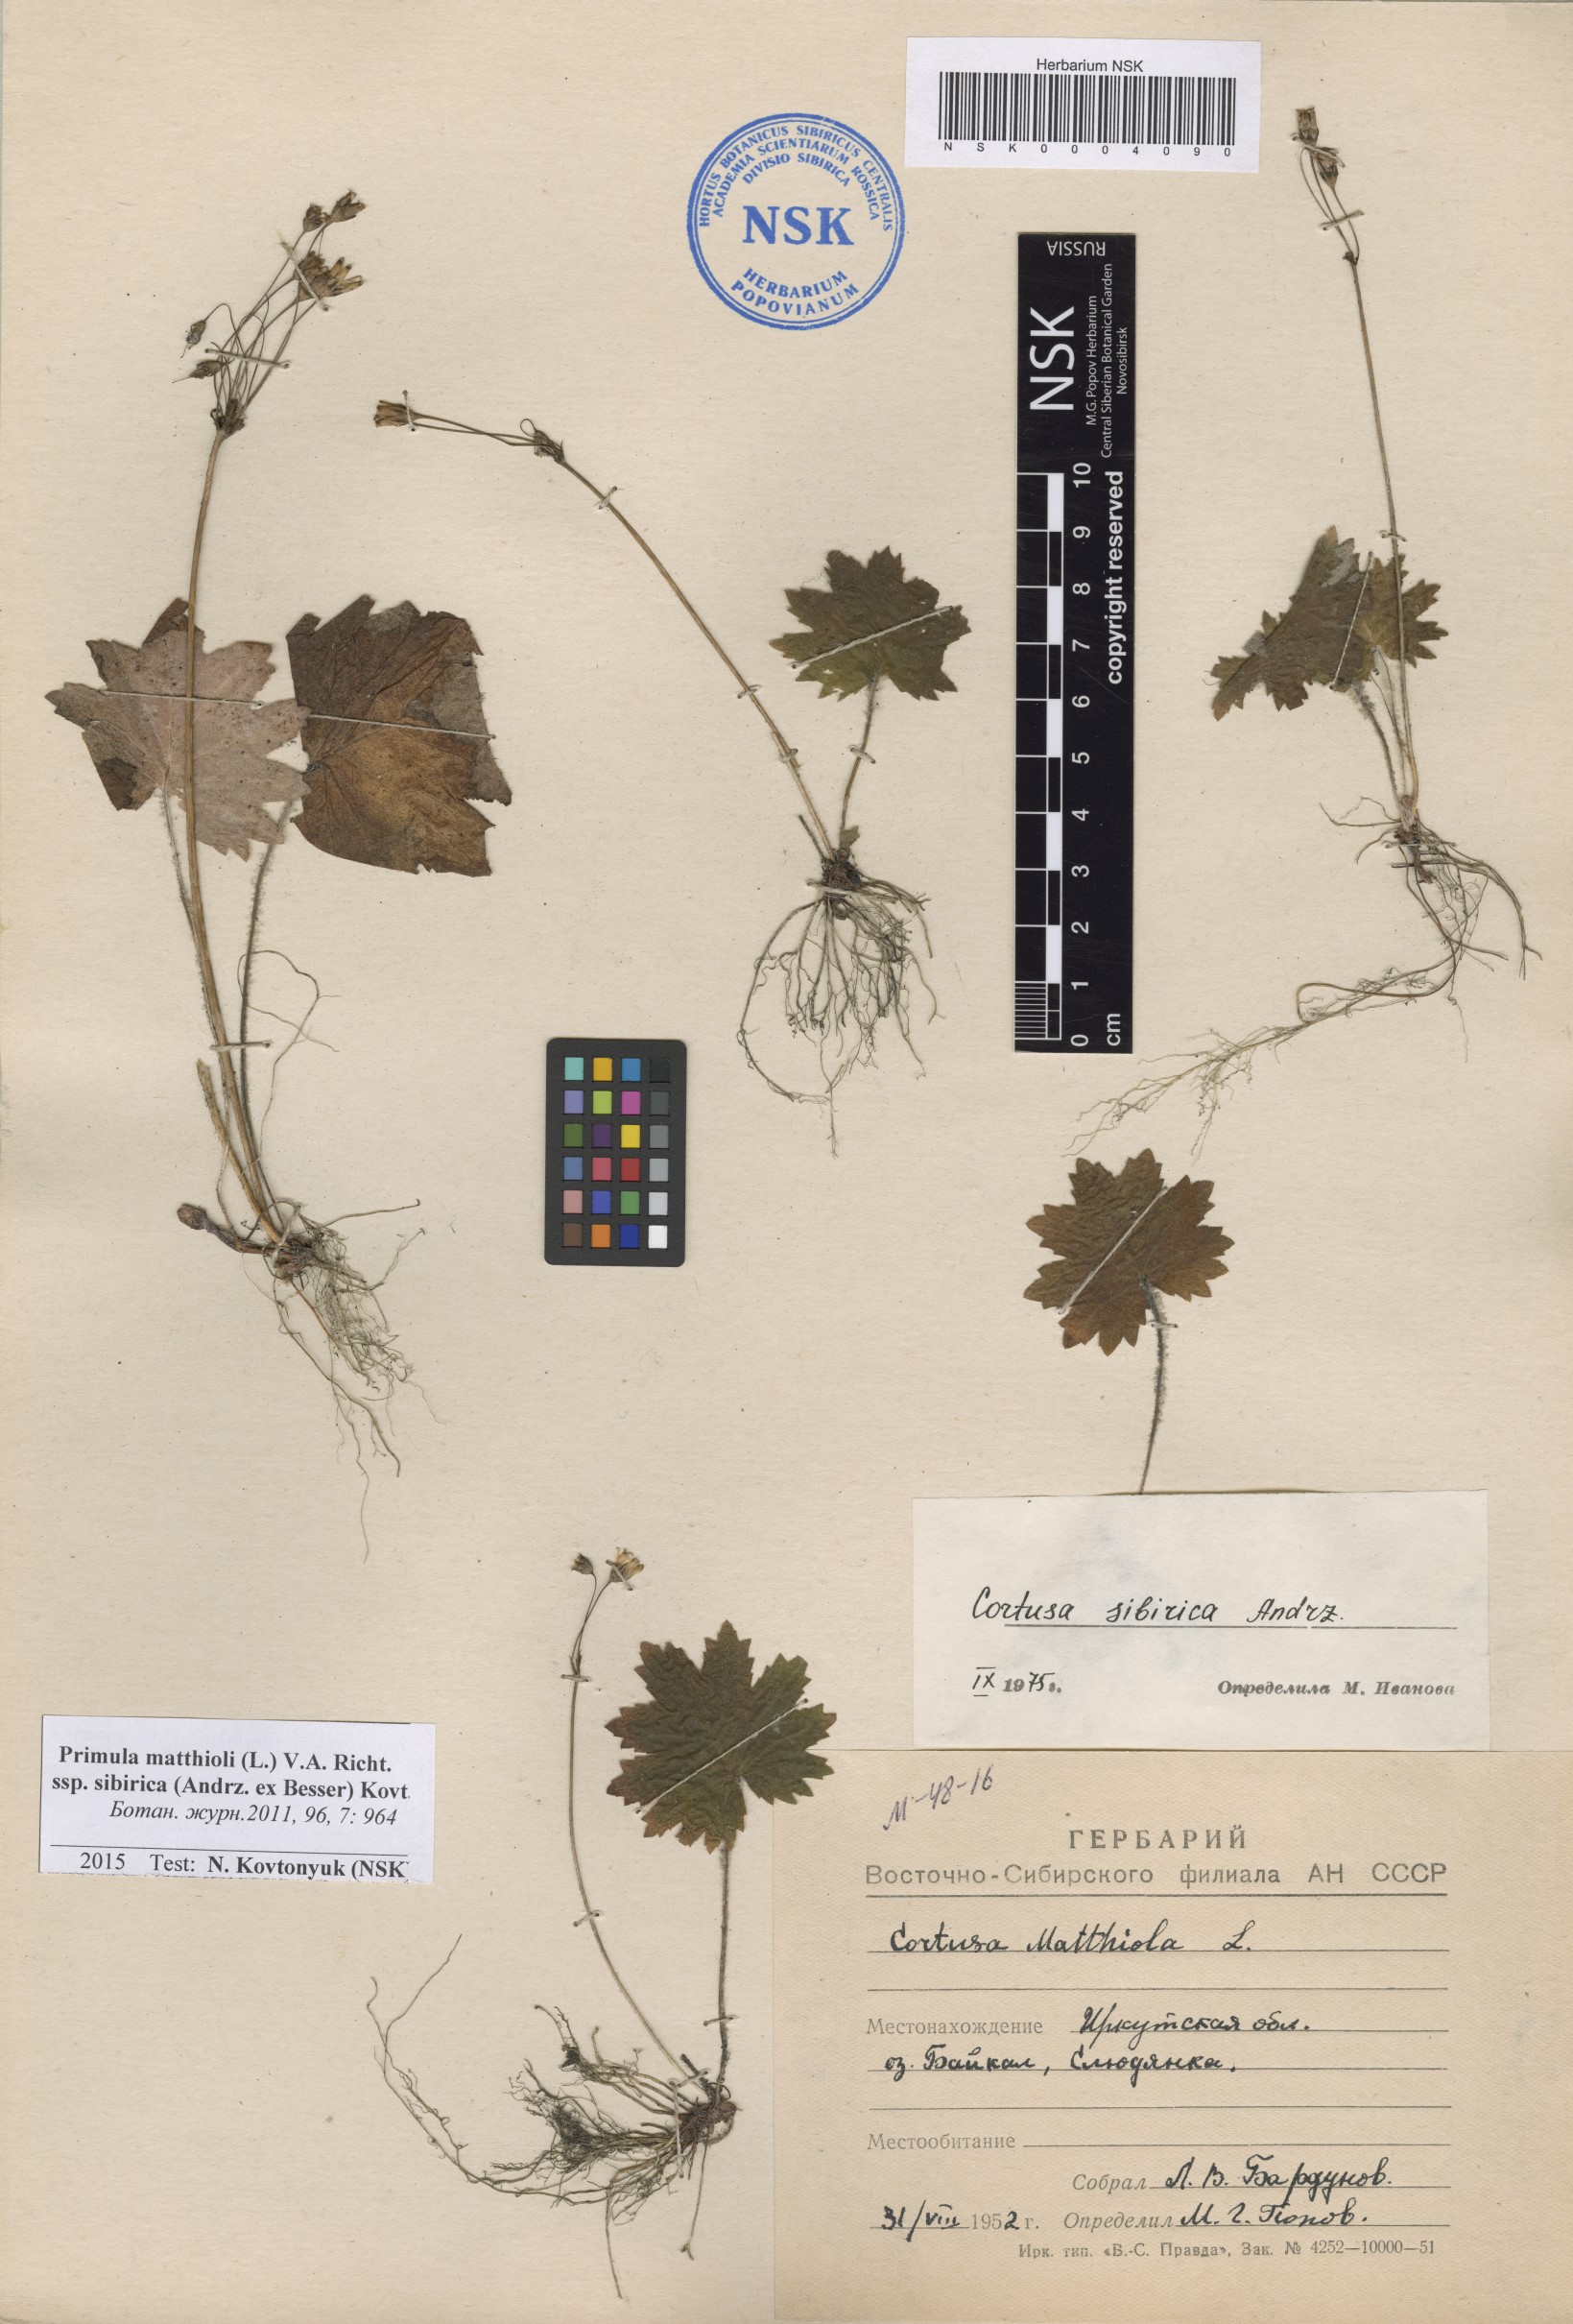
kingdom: Plantae
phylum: Tracheophyta
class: Magnoliopsida
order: Ericales
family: Primulaceae
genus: Primula
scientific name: Primula matthioli
